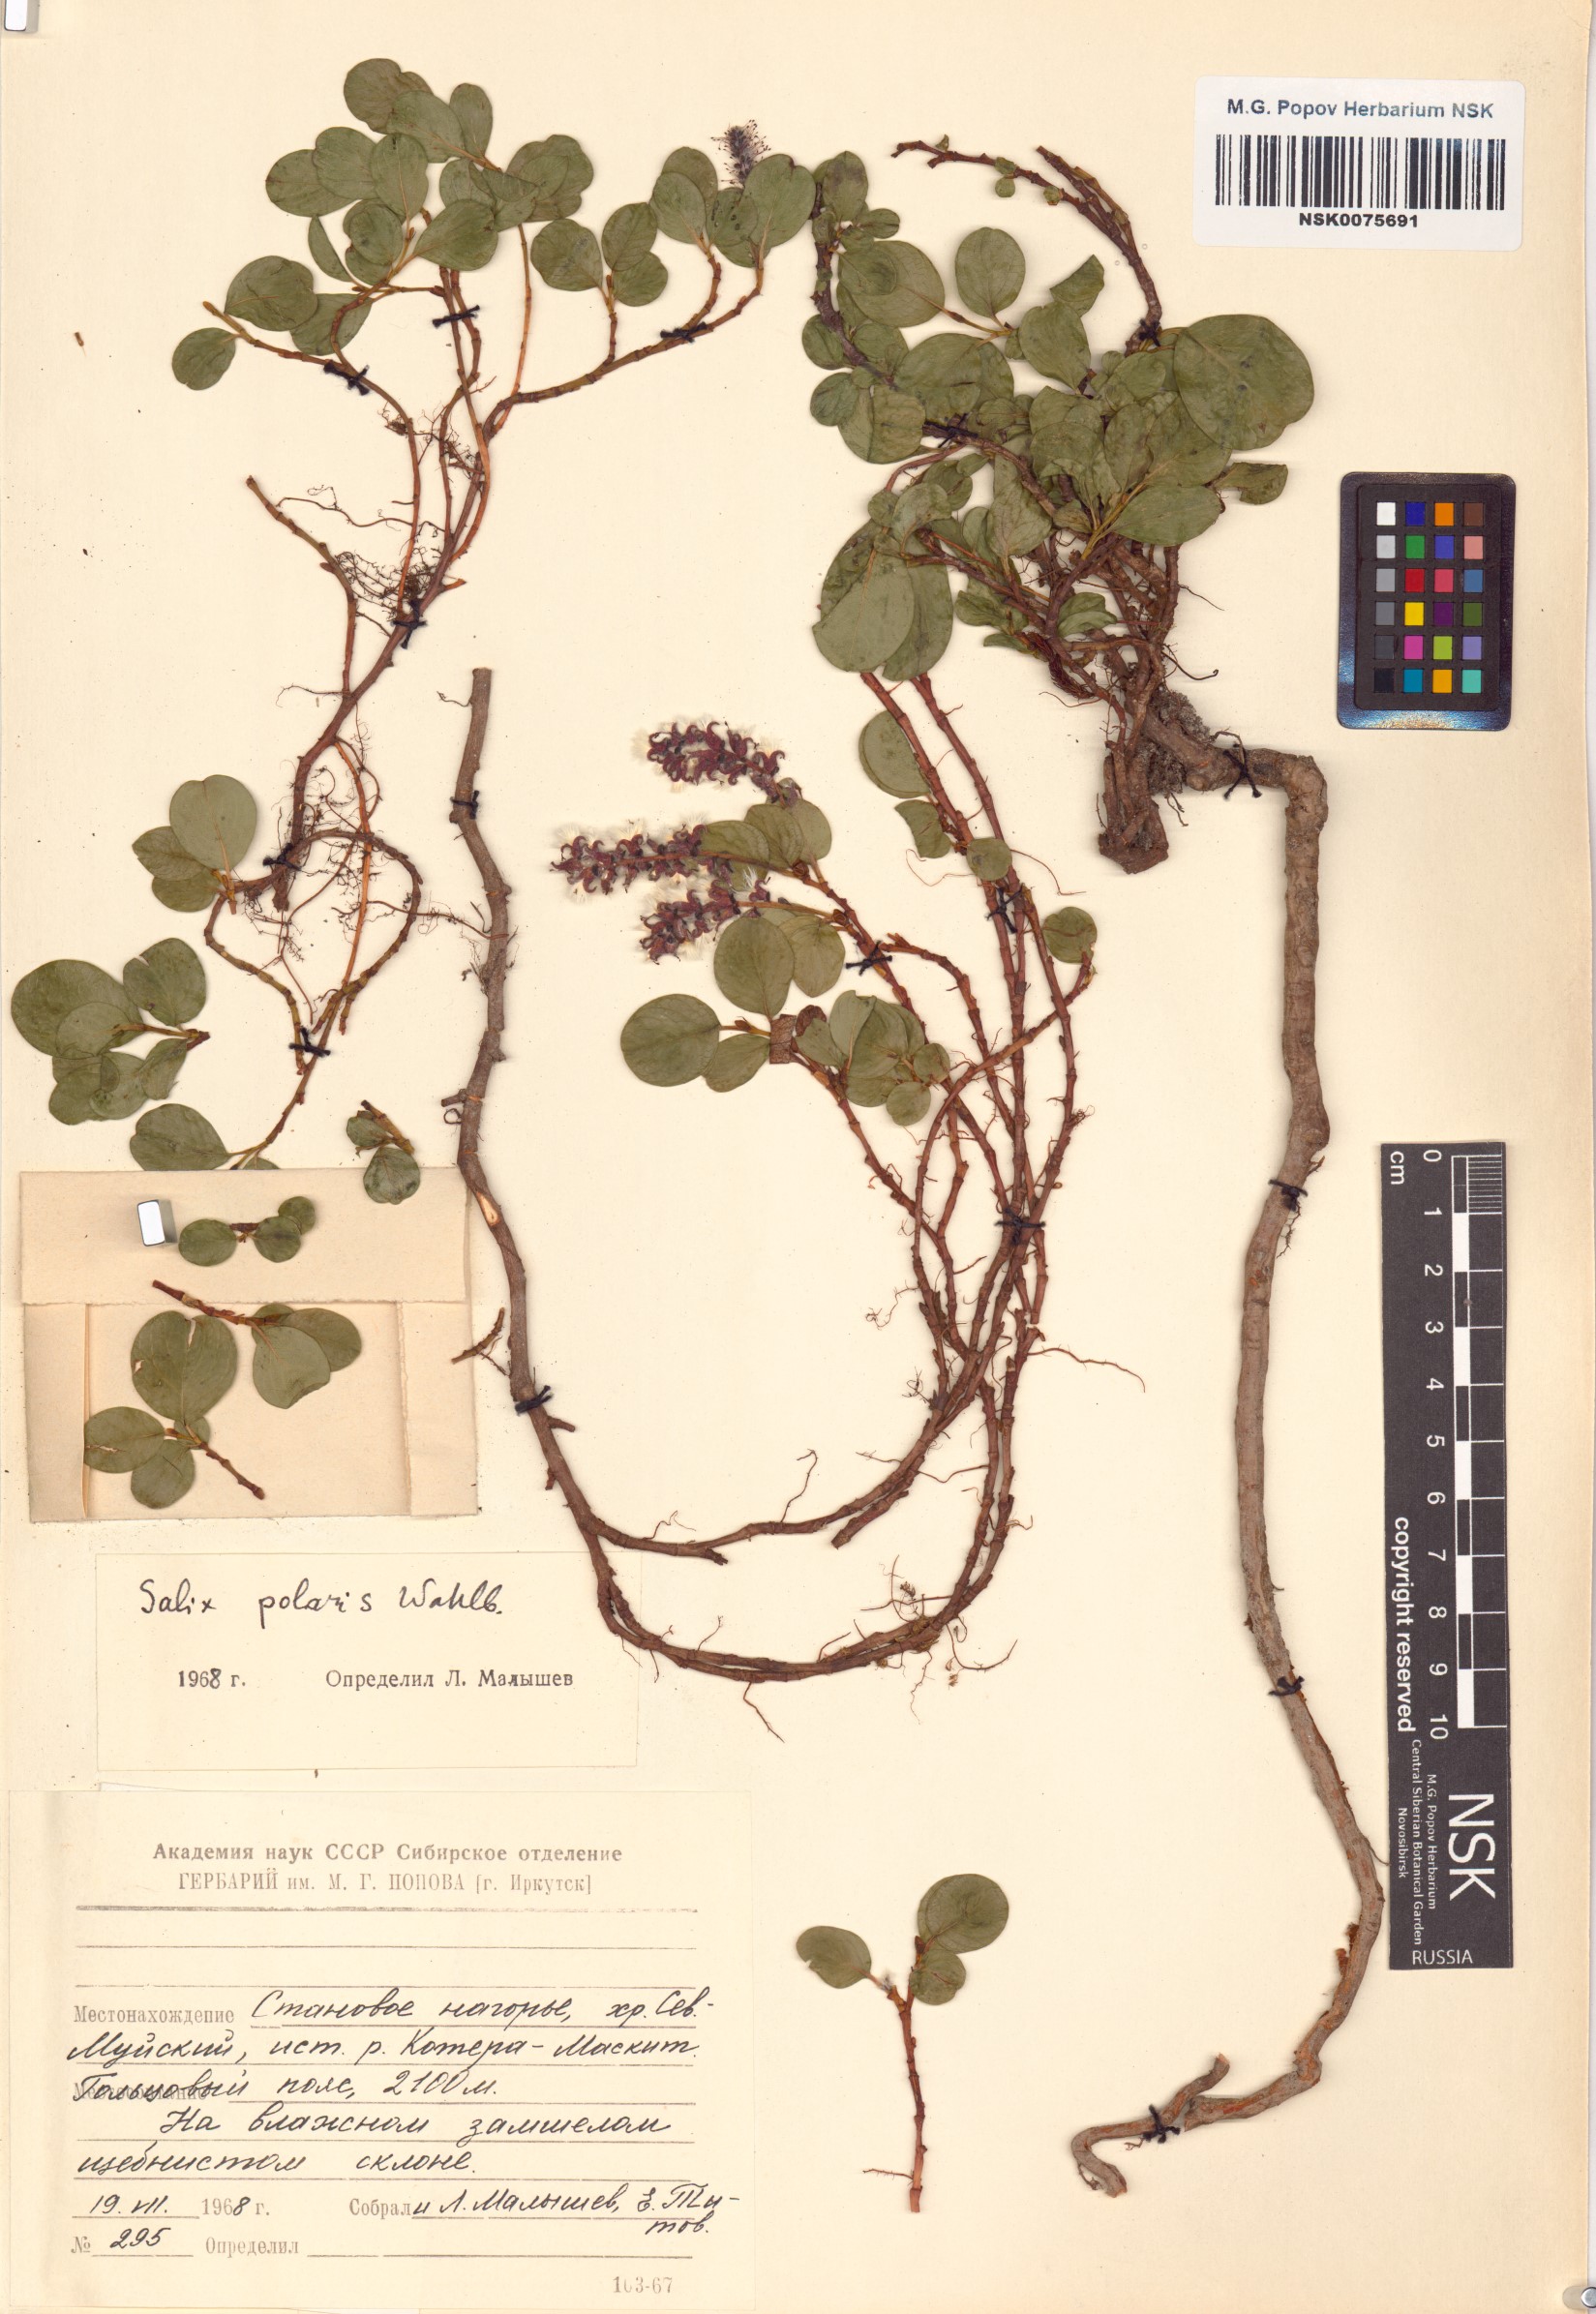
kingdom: Plantae
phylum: Tracheophyta
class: Magnoliopsida
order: Malpighiales
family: Salicaceae
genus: Salix
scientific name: Salix polaris
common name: Polar willow
